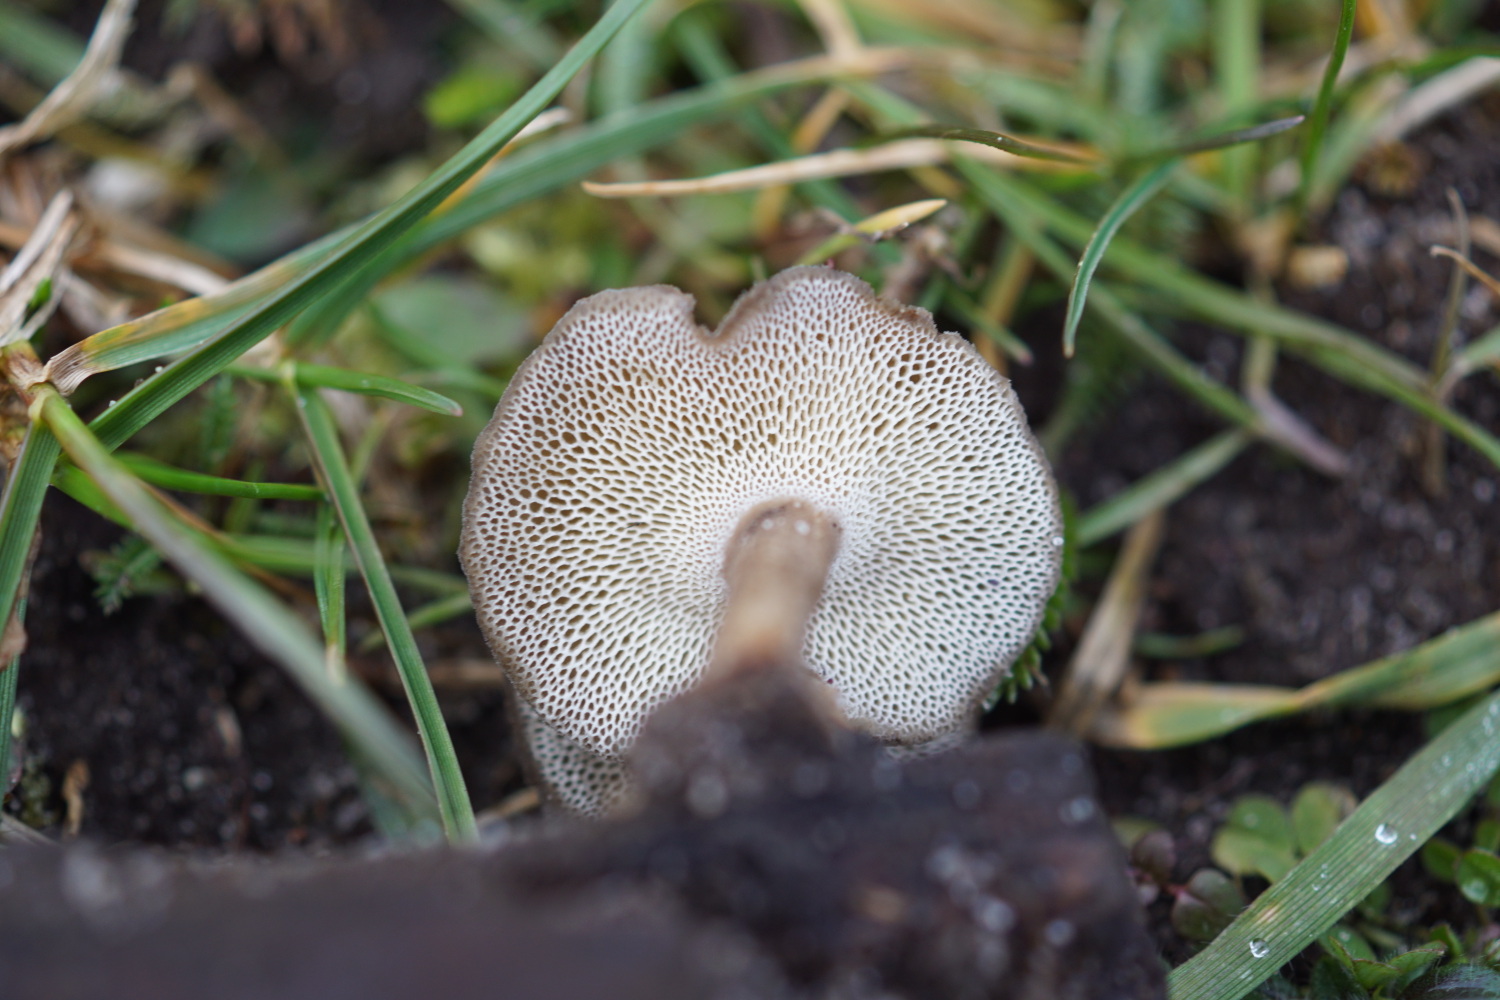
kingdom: Fungi
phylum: Basidiomycota
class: Agaricomycetes
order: Polyporales
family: Polyporaceae
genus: Lentinus
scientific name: Lentinus brumalis
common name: vinter-stilkporesvamp
